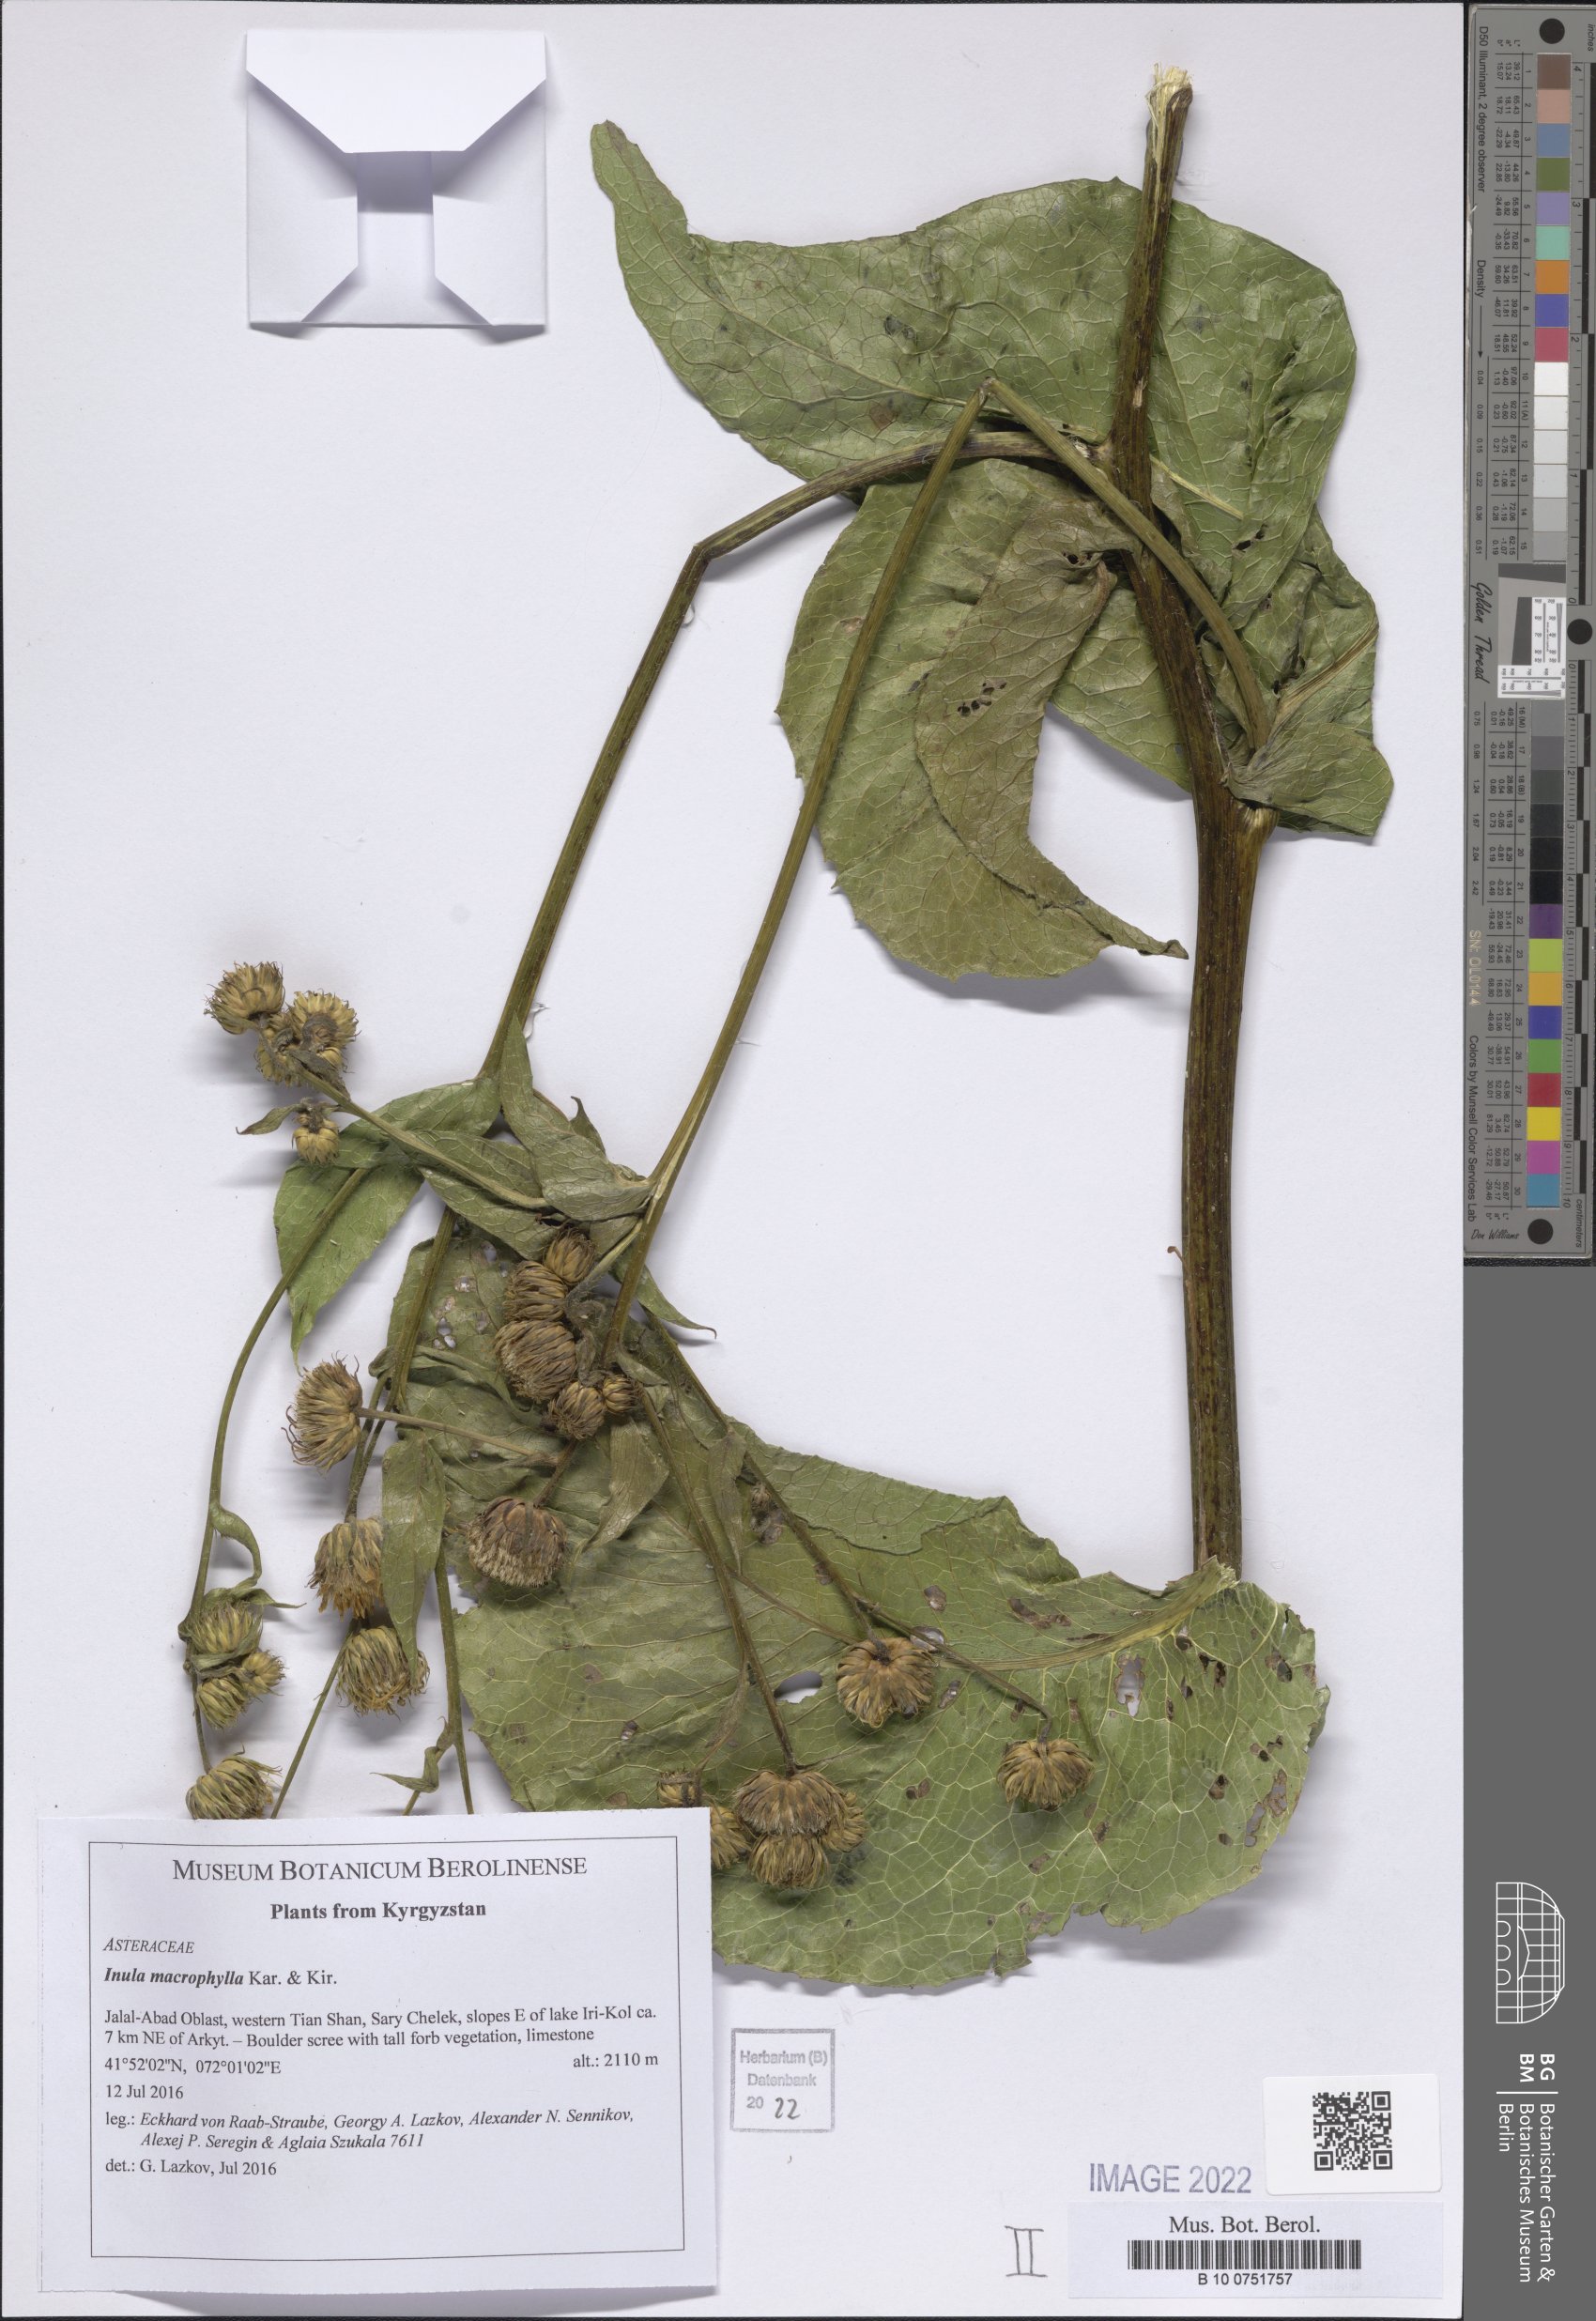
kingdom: Plantae
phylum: Tracheophyta
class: Magnoliopsida
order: Asterales
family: Asteraceae
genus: Inula
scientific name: Inula grandis
